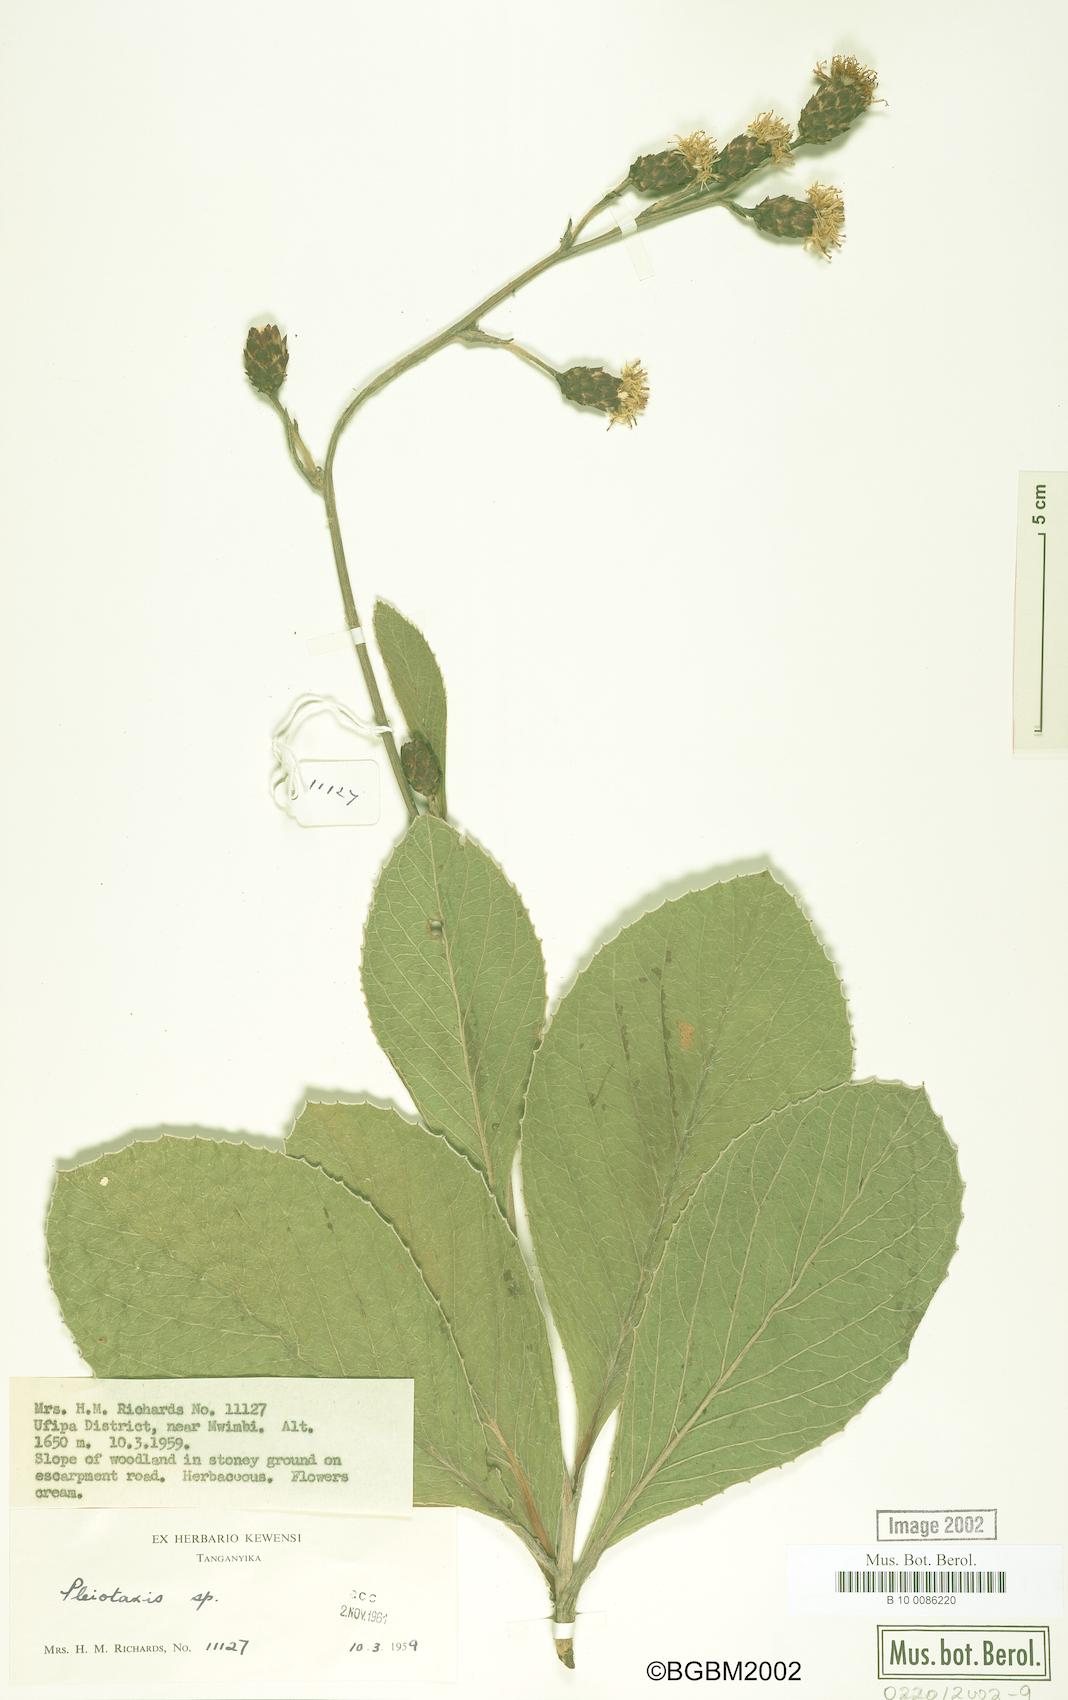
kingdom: Plantae
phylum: Tracheophyta
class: Magnoliopsida
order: Asterales
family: Asteraceae
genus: Pleiotaxis
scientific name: Pleiotaxis
